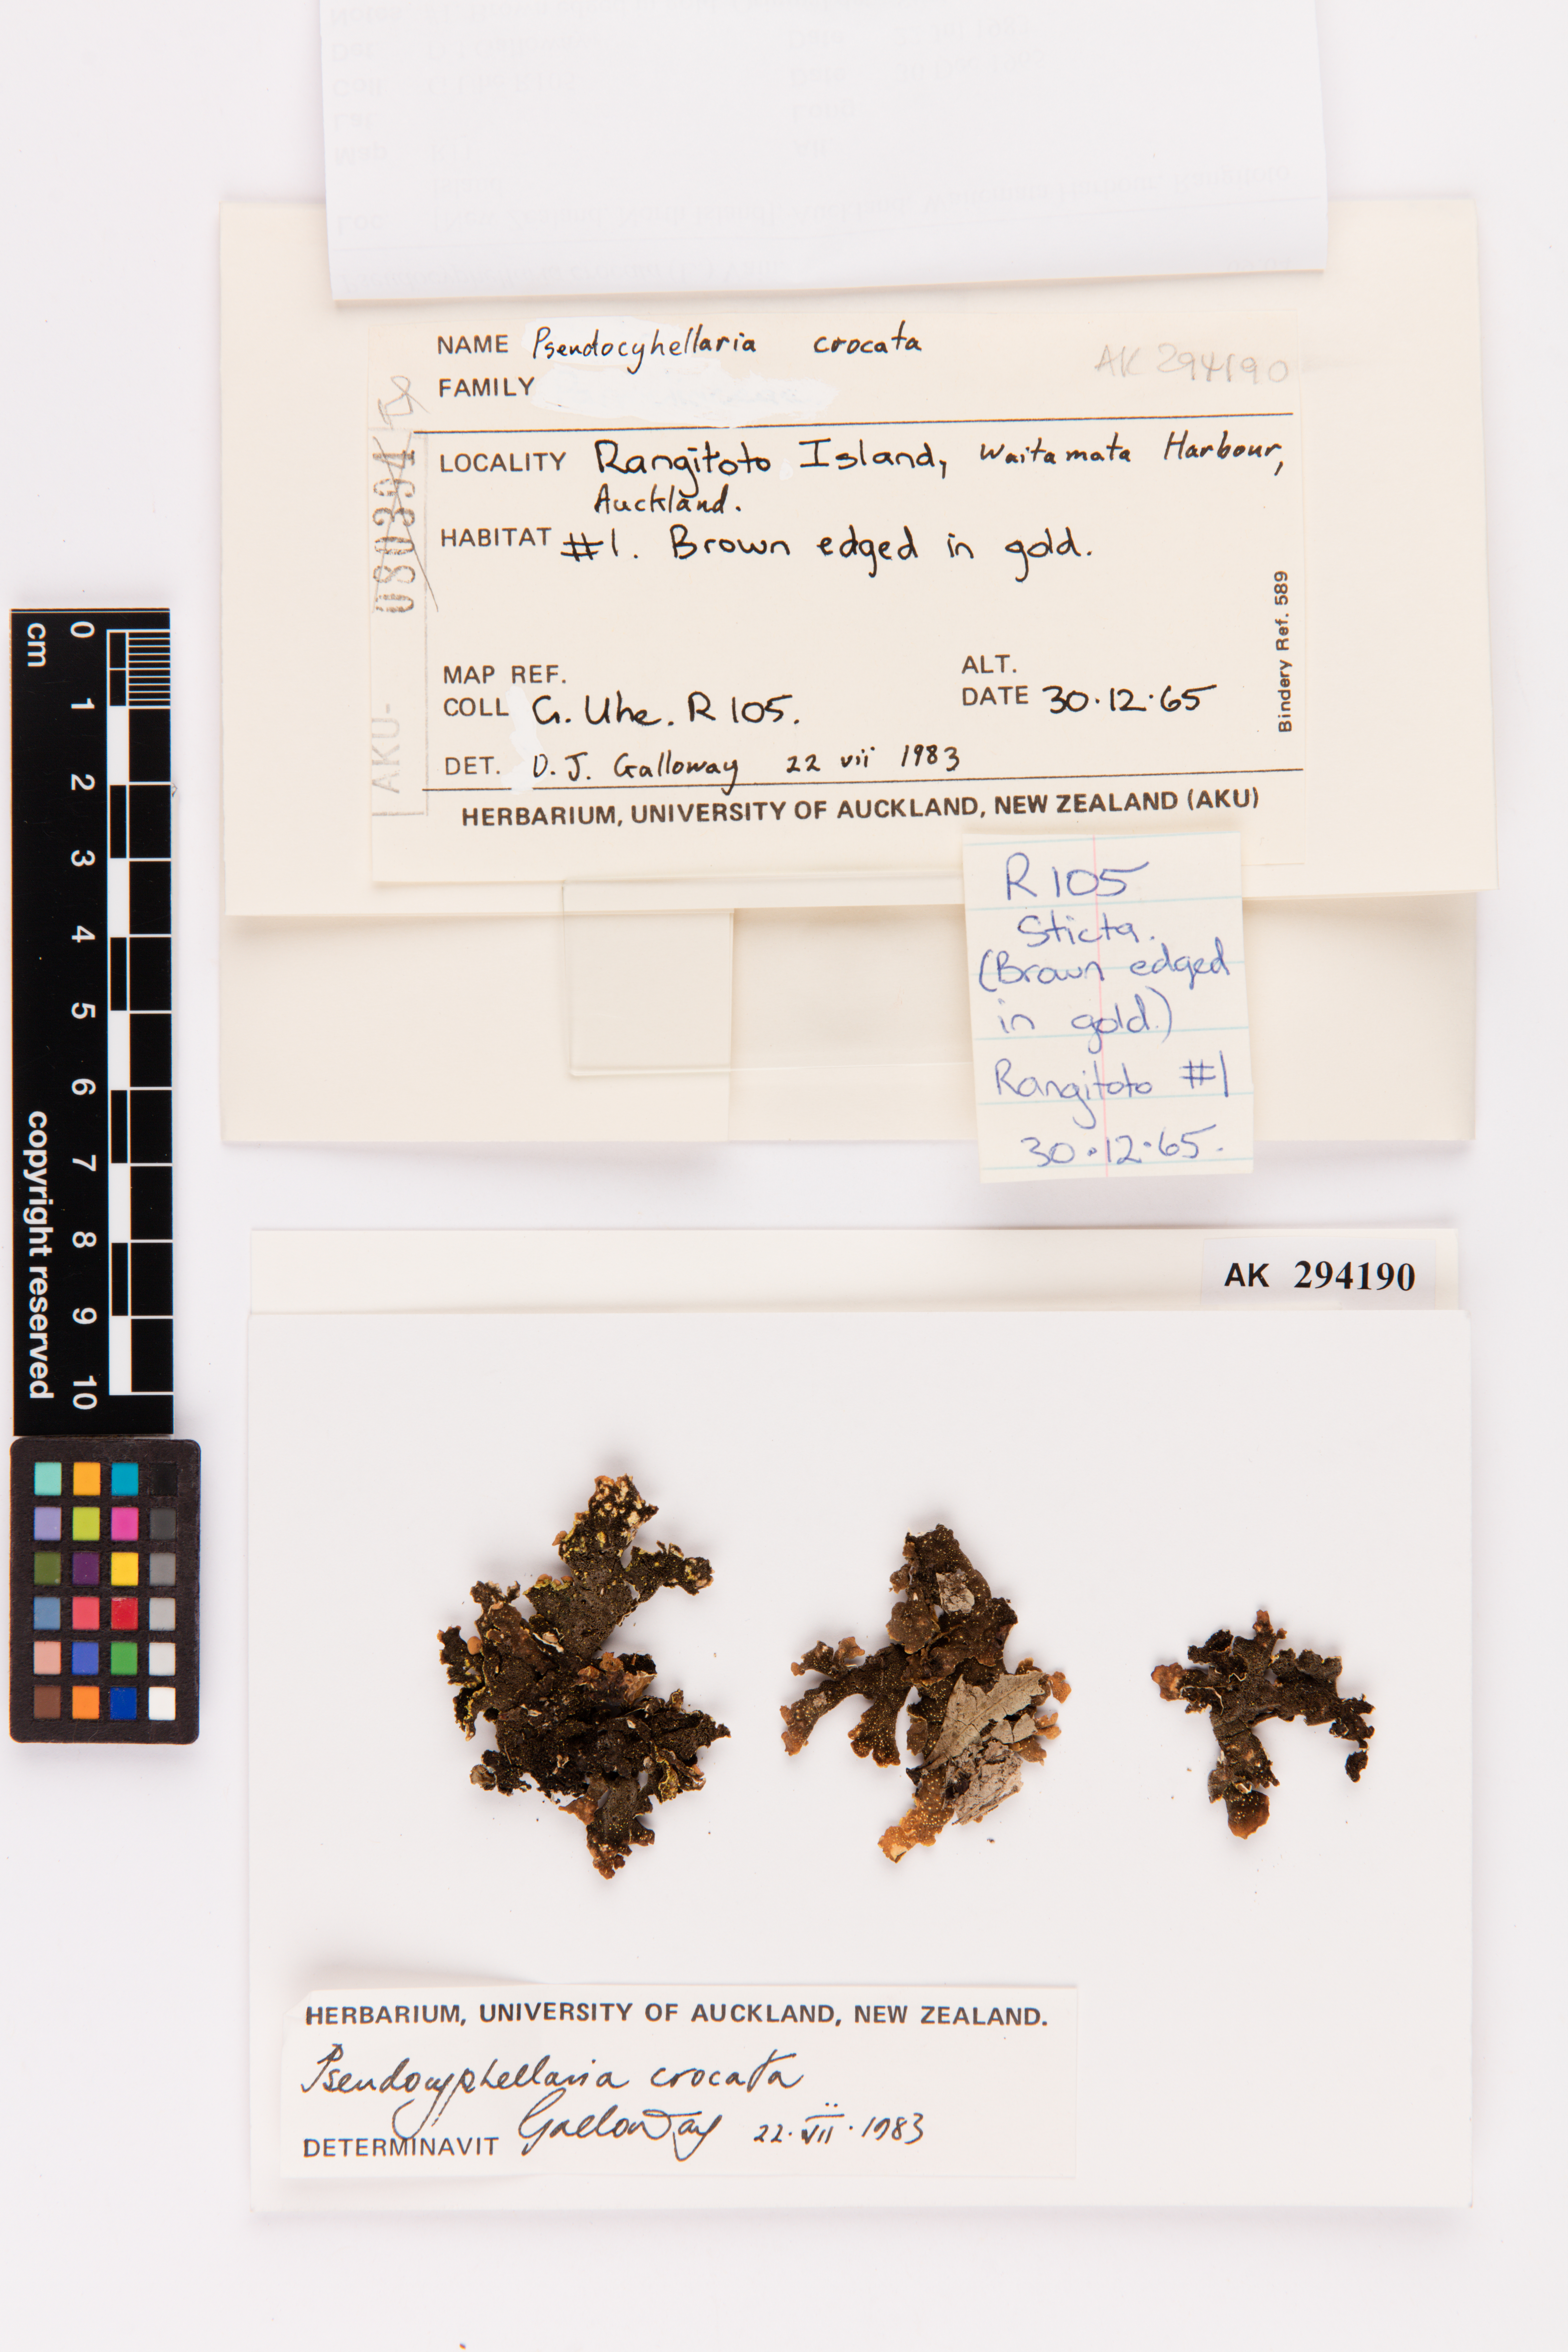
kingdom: Fungi
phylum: Ascomycota
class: Lecanoromycetes
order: Peltigerales
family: Lobariaceae
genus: Pseudocyphellaria
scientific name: Pseudocyphellaria crocata
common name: Golden specklebelly
